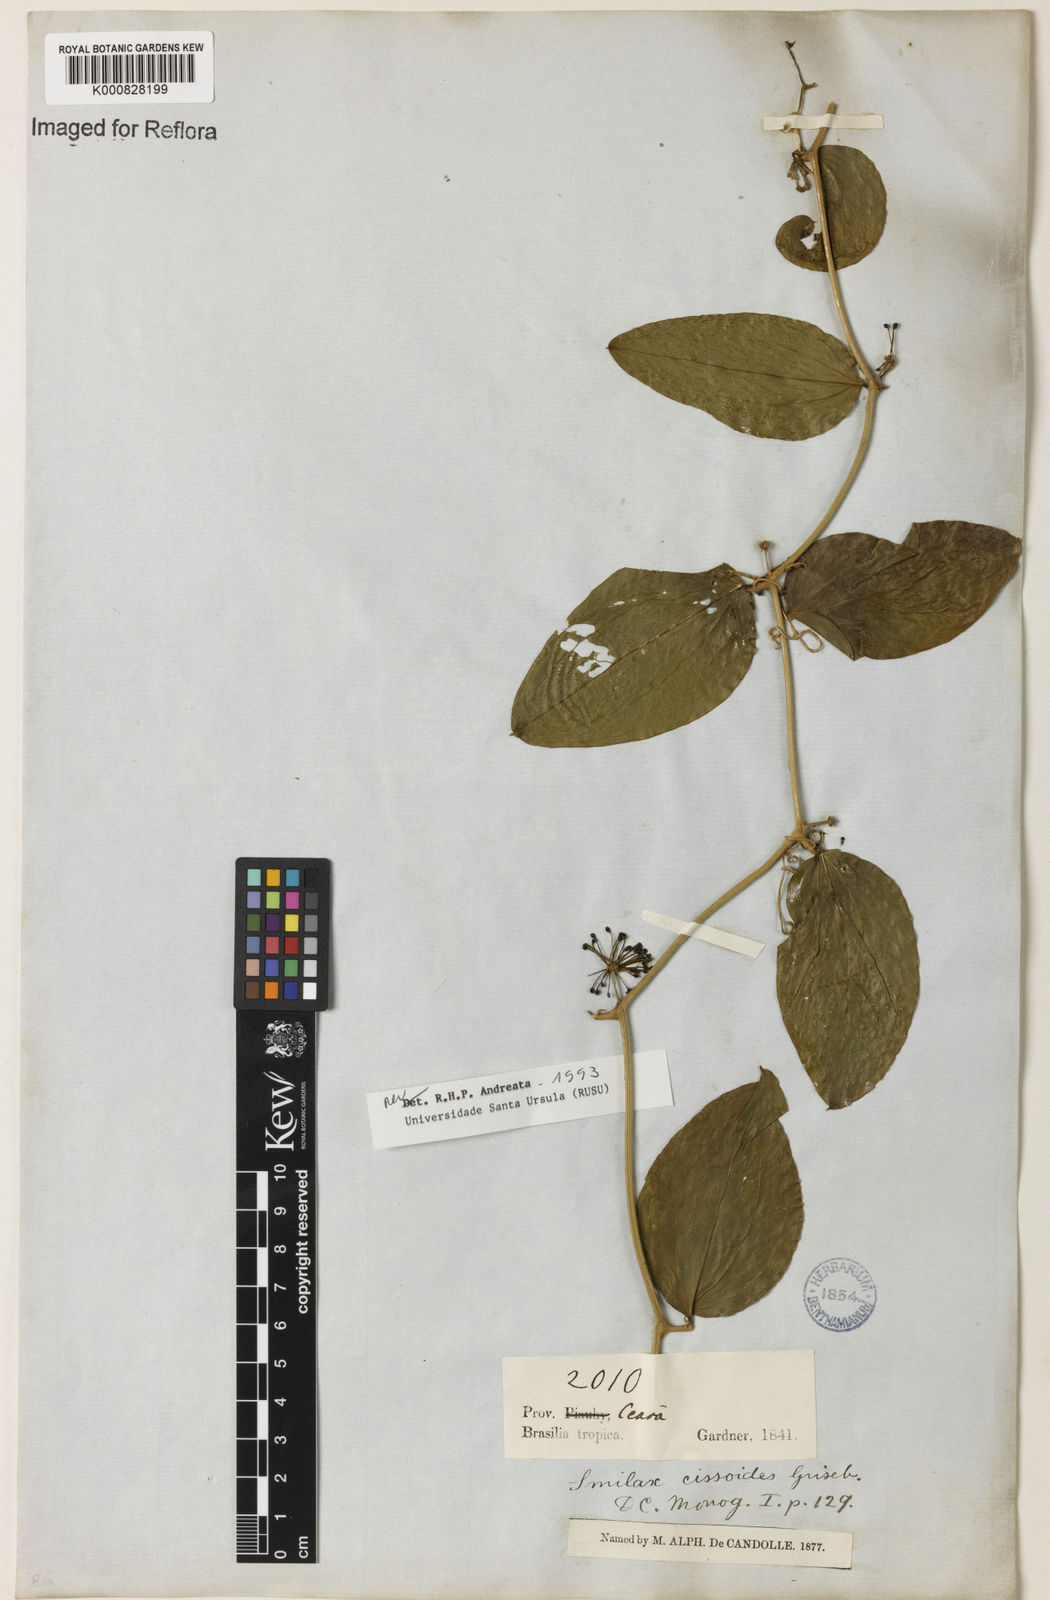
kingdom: Plantae
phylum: Tracheophyta
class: Liliopsida
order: Liliales
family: Smilacaceae
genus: Smilax
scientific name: Smilax
